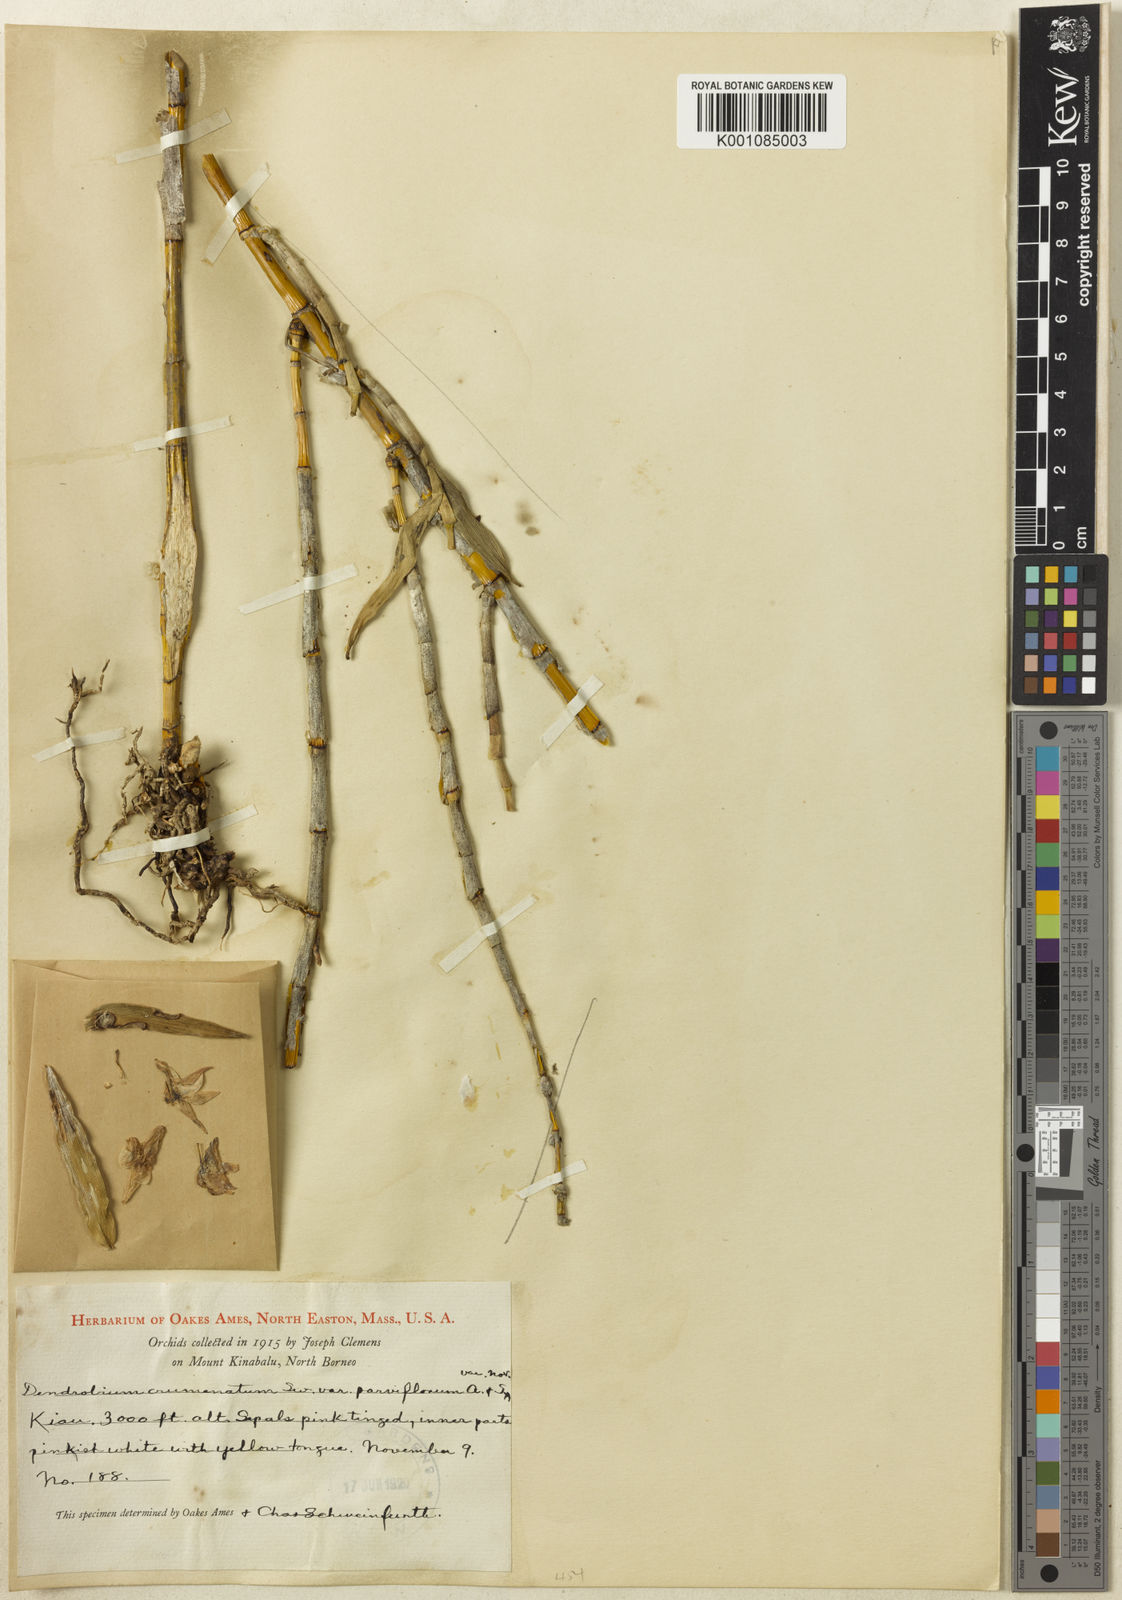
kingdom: Plantae
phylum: Tracheophyta
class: Liliopsida
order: Asparagales
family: Orchidaceae
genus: Dendrobium
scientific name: Dendrobium crumenatum
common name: Orchid
